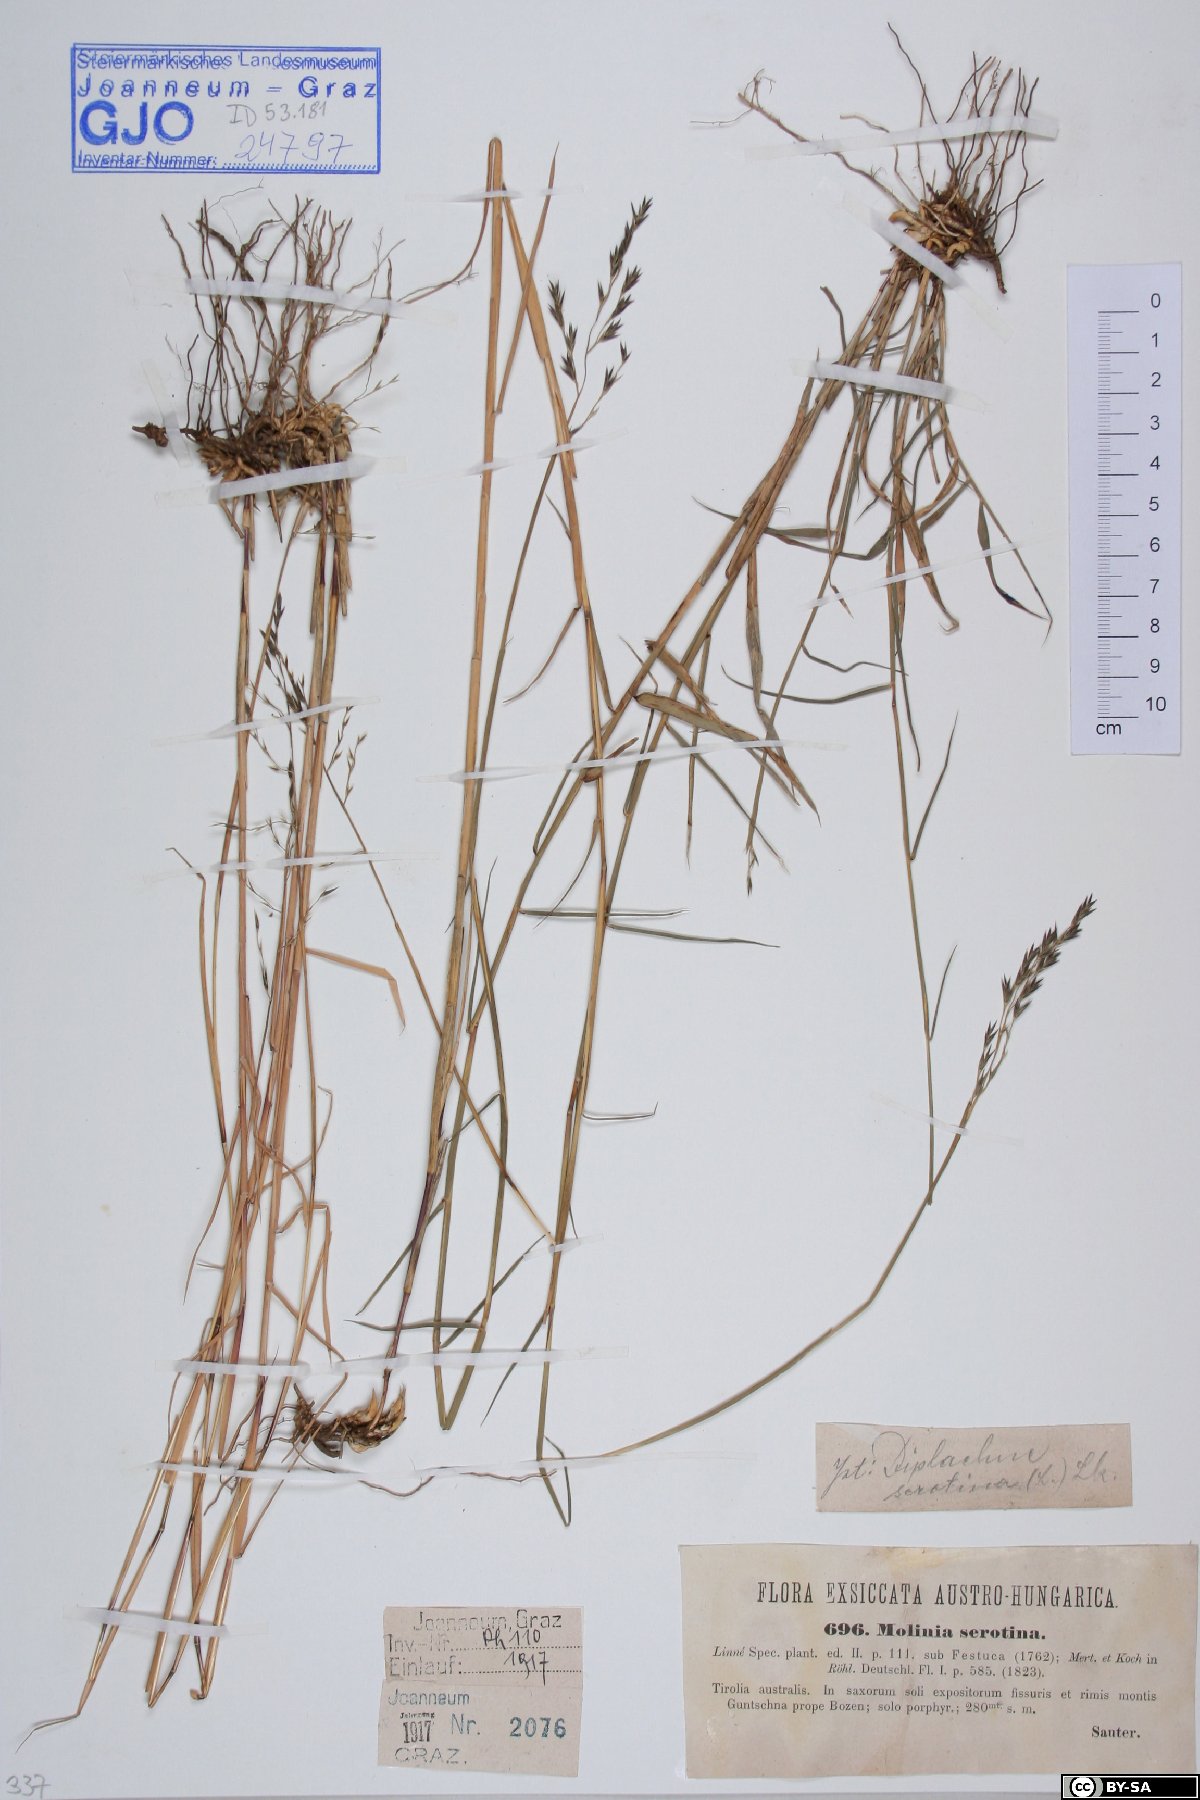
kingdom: Plantae
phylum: Tracheophyta
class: Liliopsida
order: Poales
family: Poaceae
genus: Cleistogenes
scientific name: Cleistogenes serotina
